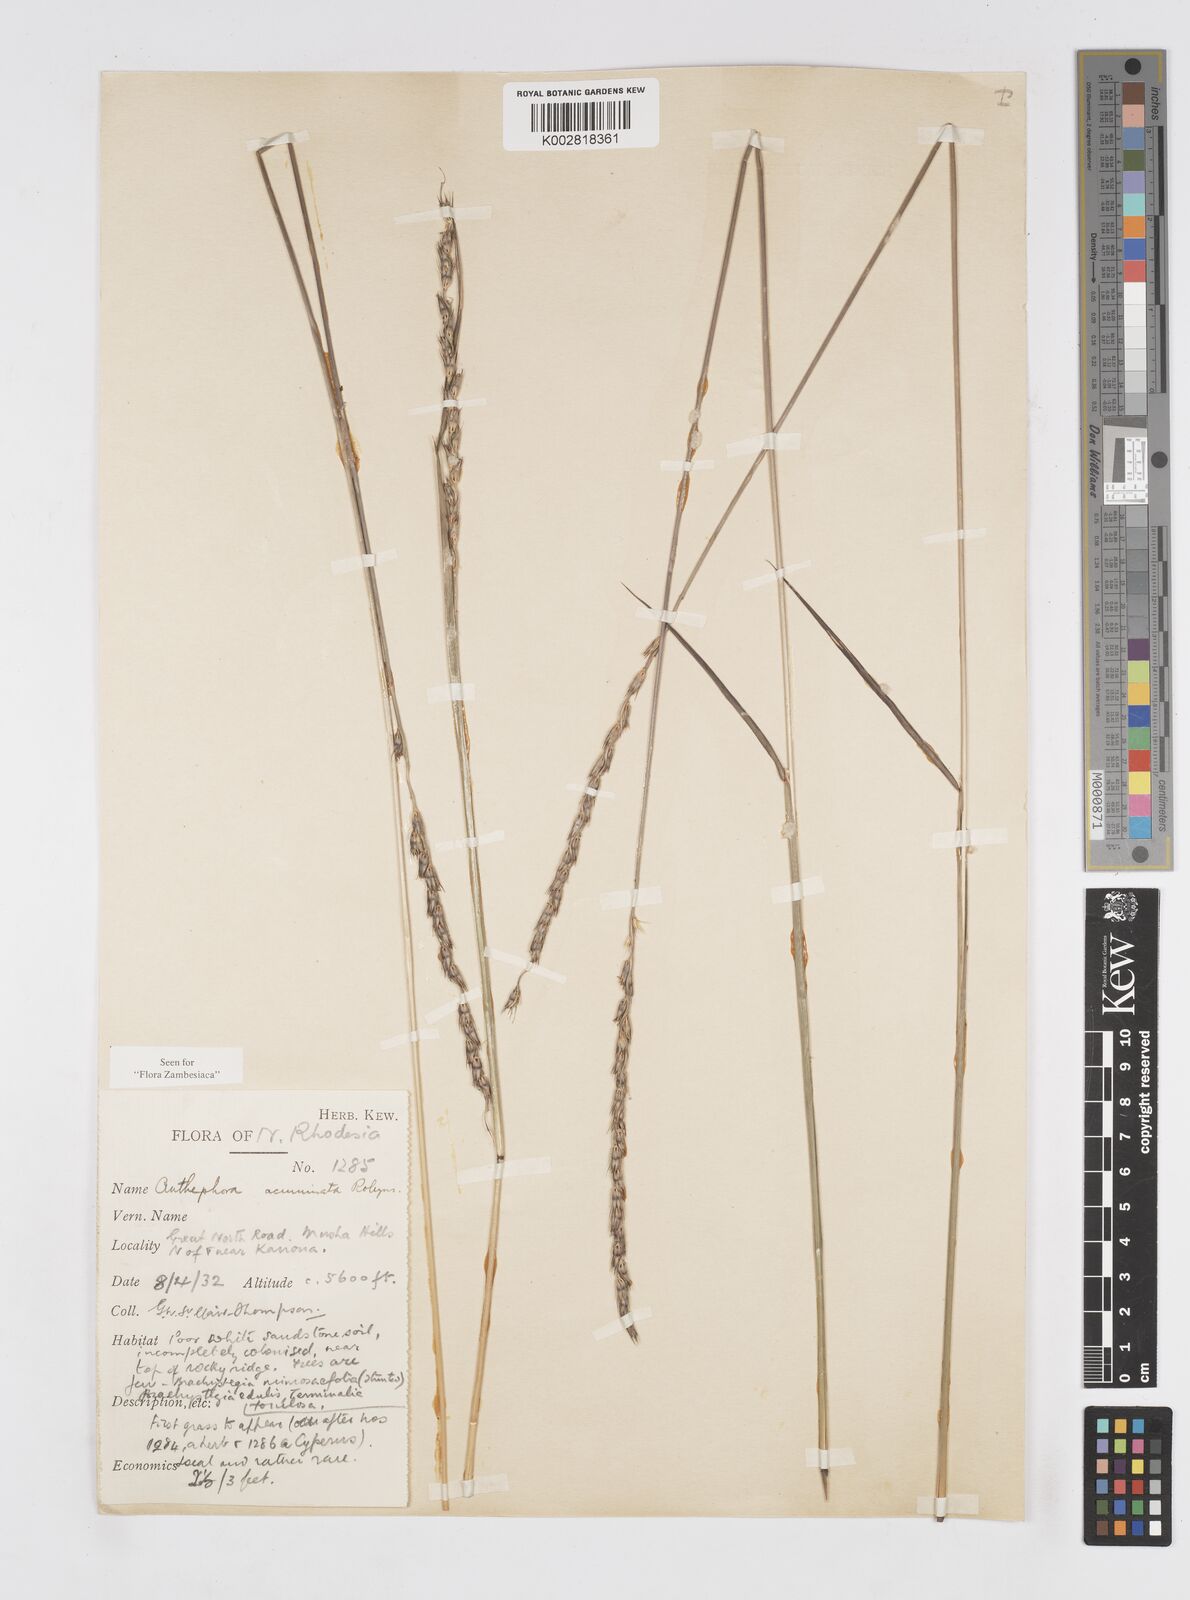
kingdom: Plantae
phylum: Tracheophyta
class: Liliopsida
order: Poales
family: Poaceae
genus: Anthephora
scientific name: Anthephora elongata
